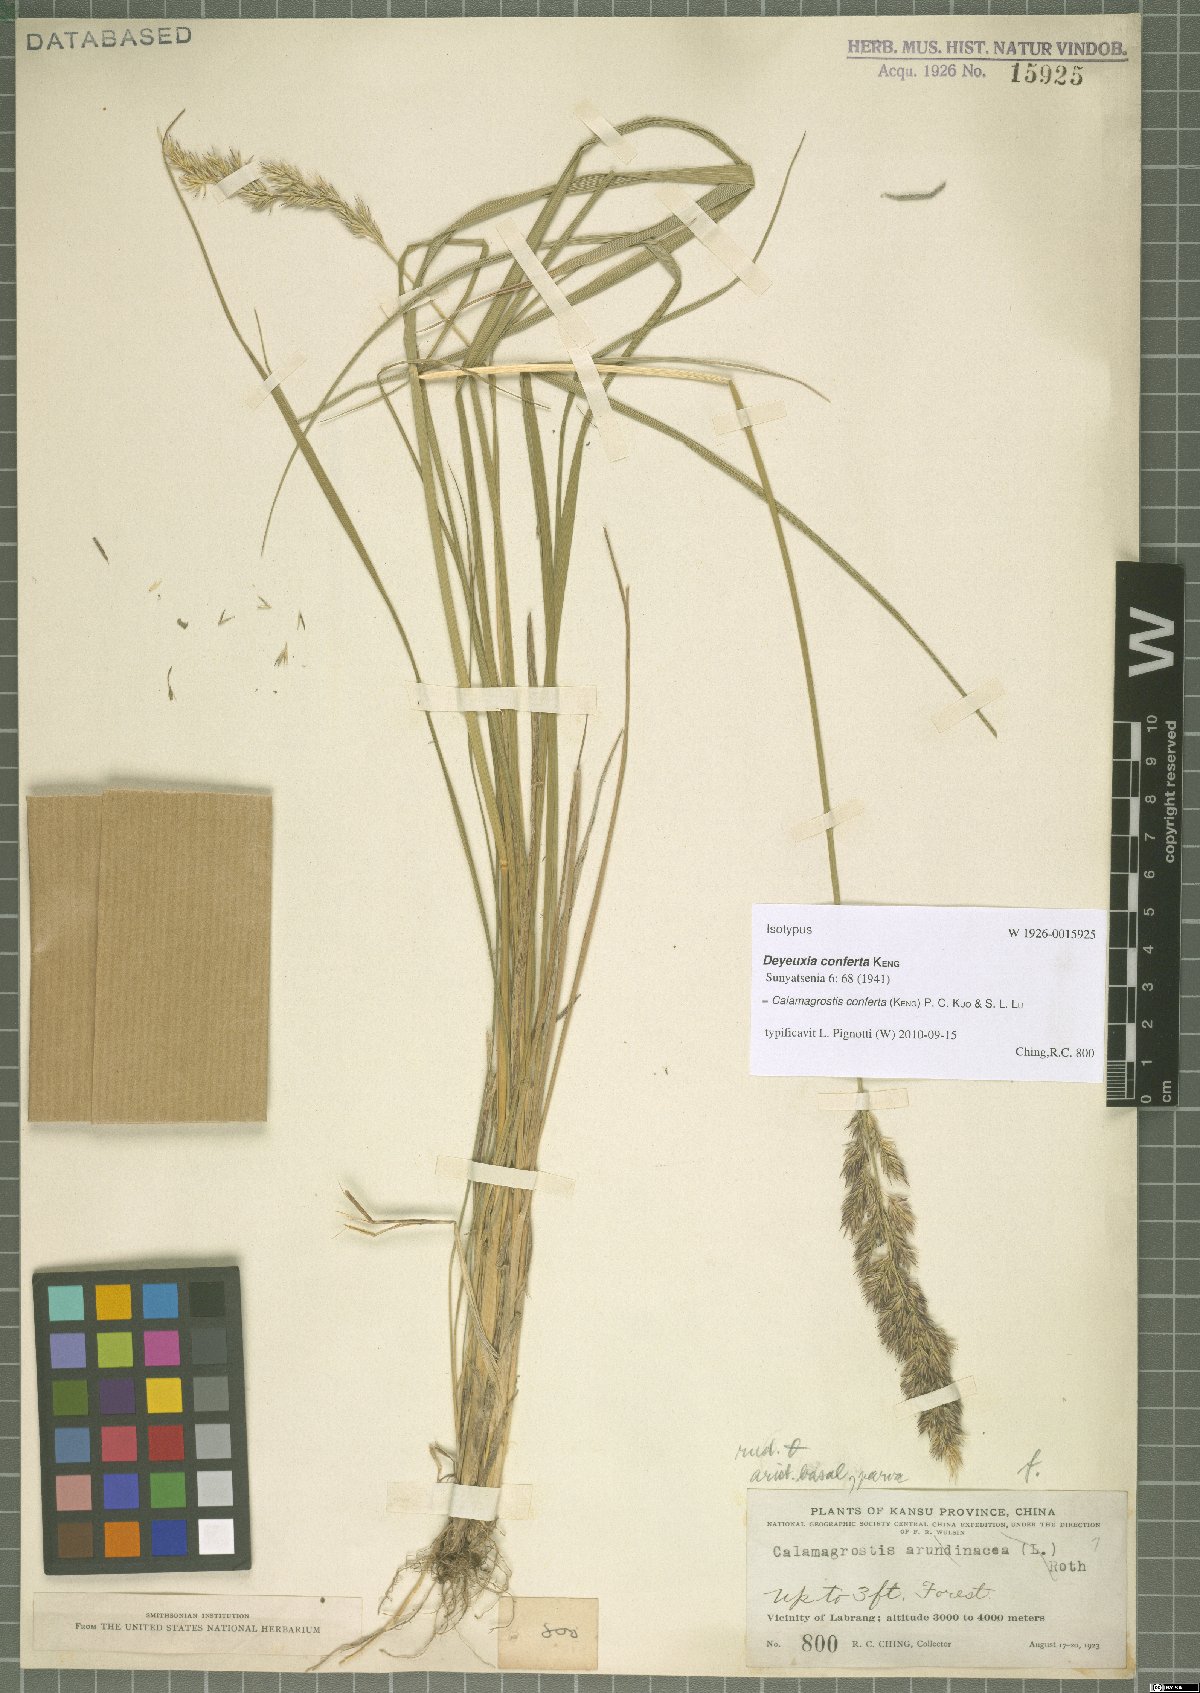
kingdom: Plantae
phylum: Tracheophyta
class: Liliopsida
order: Poales
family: Poaceae
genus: Calamagrostis
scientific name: Calamagrostis conferta
